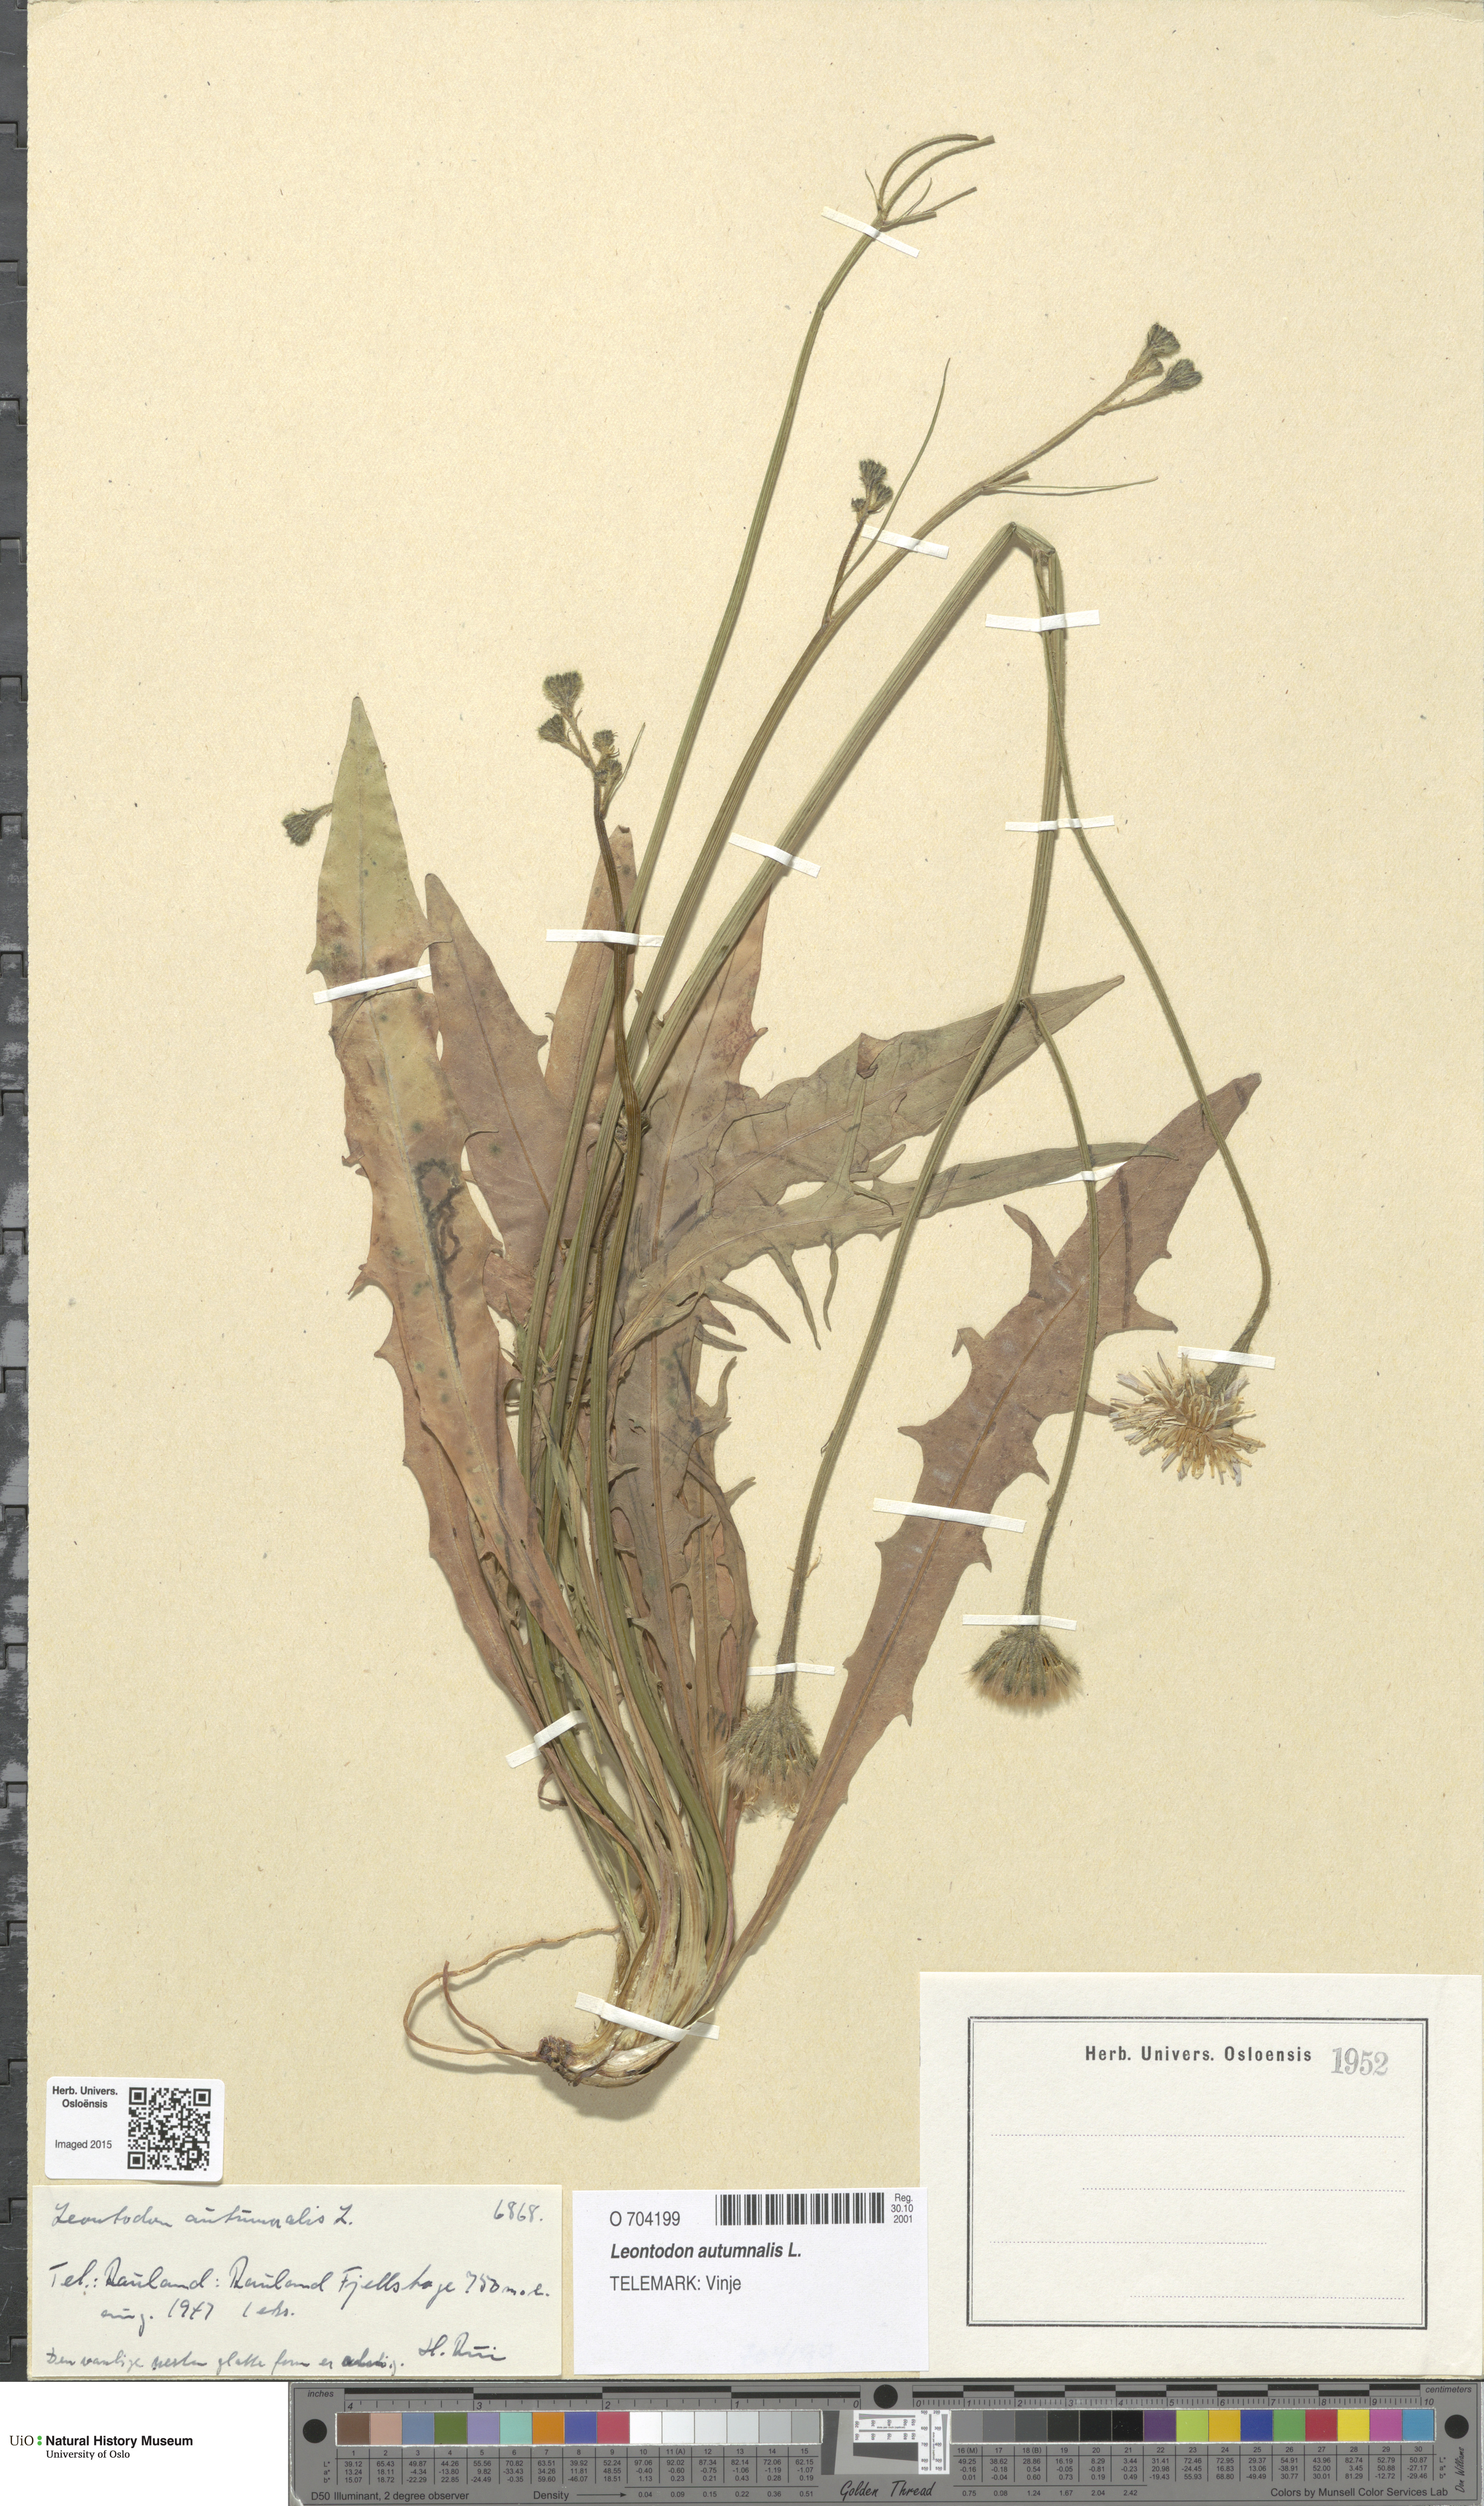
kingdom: Plantae
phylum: Tracheophyta
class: Magnoliopsida
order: Asterales
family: Asteraceae
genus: Scorzoneroides
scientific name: Scorzoneroides autumnalis
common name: Autumn hawkbit
